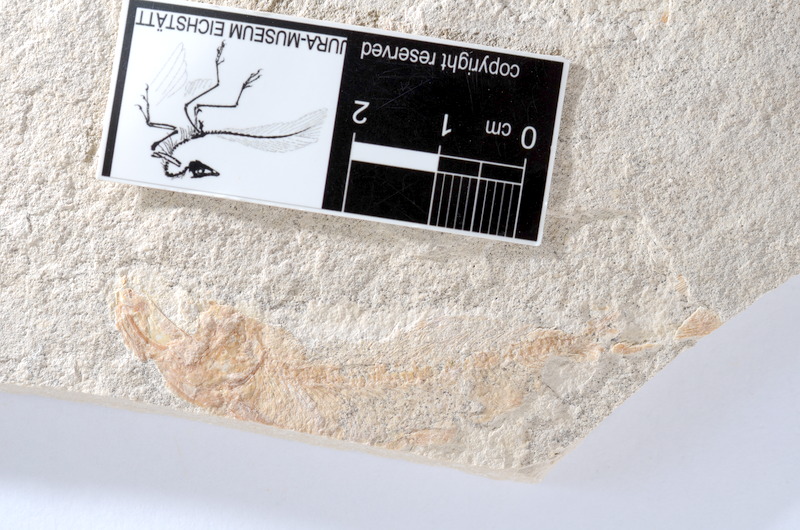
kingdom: Animalia
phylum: Chordata
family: Ascalaboidae
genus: Tharsis
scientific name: Tharsis dubius
